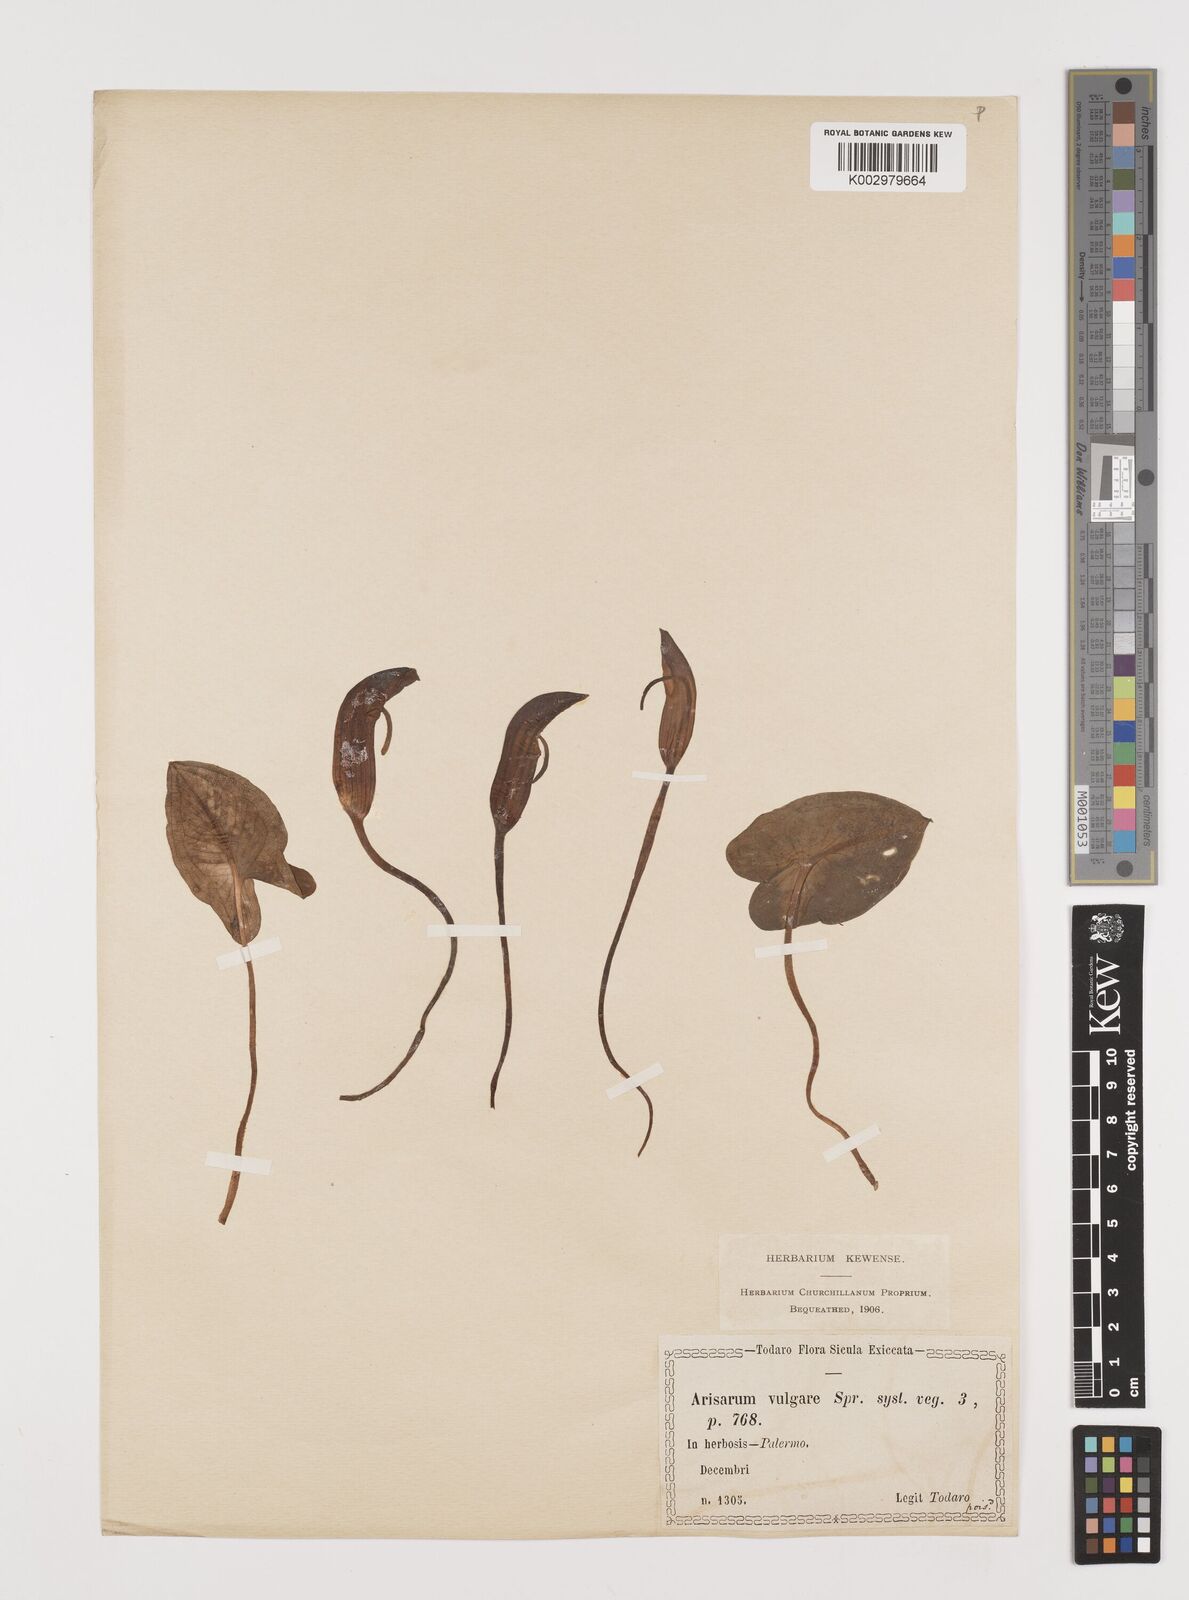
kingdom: Plantae
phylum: Tracheophyta
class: Liliopsida
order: Alismatales
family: Araceae
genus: Arisarum
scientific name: Arisarum vulgare
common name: Common arisarum
